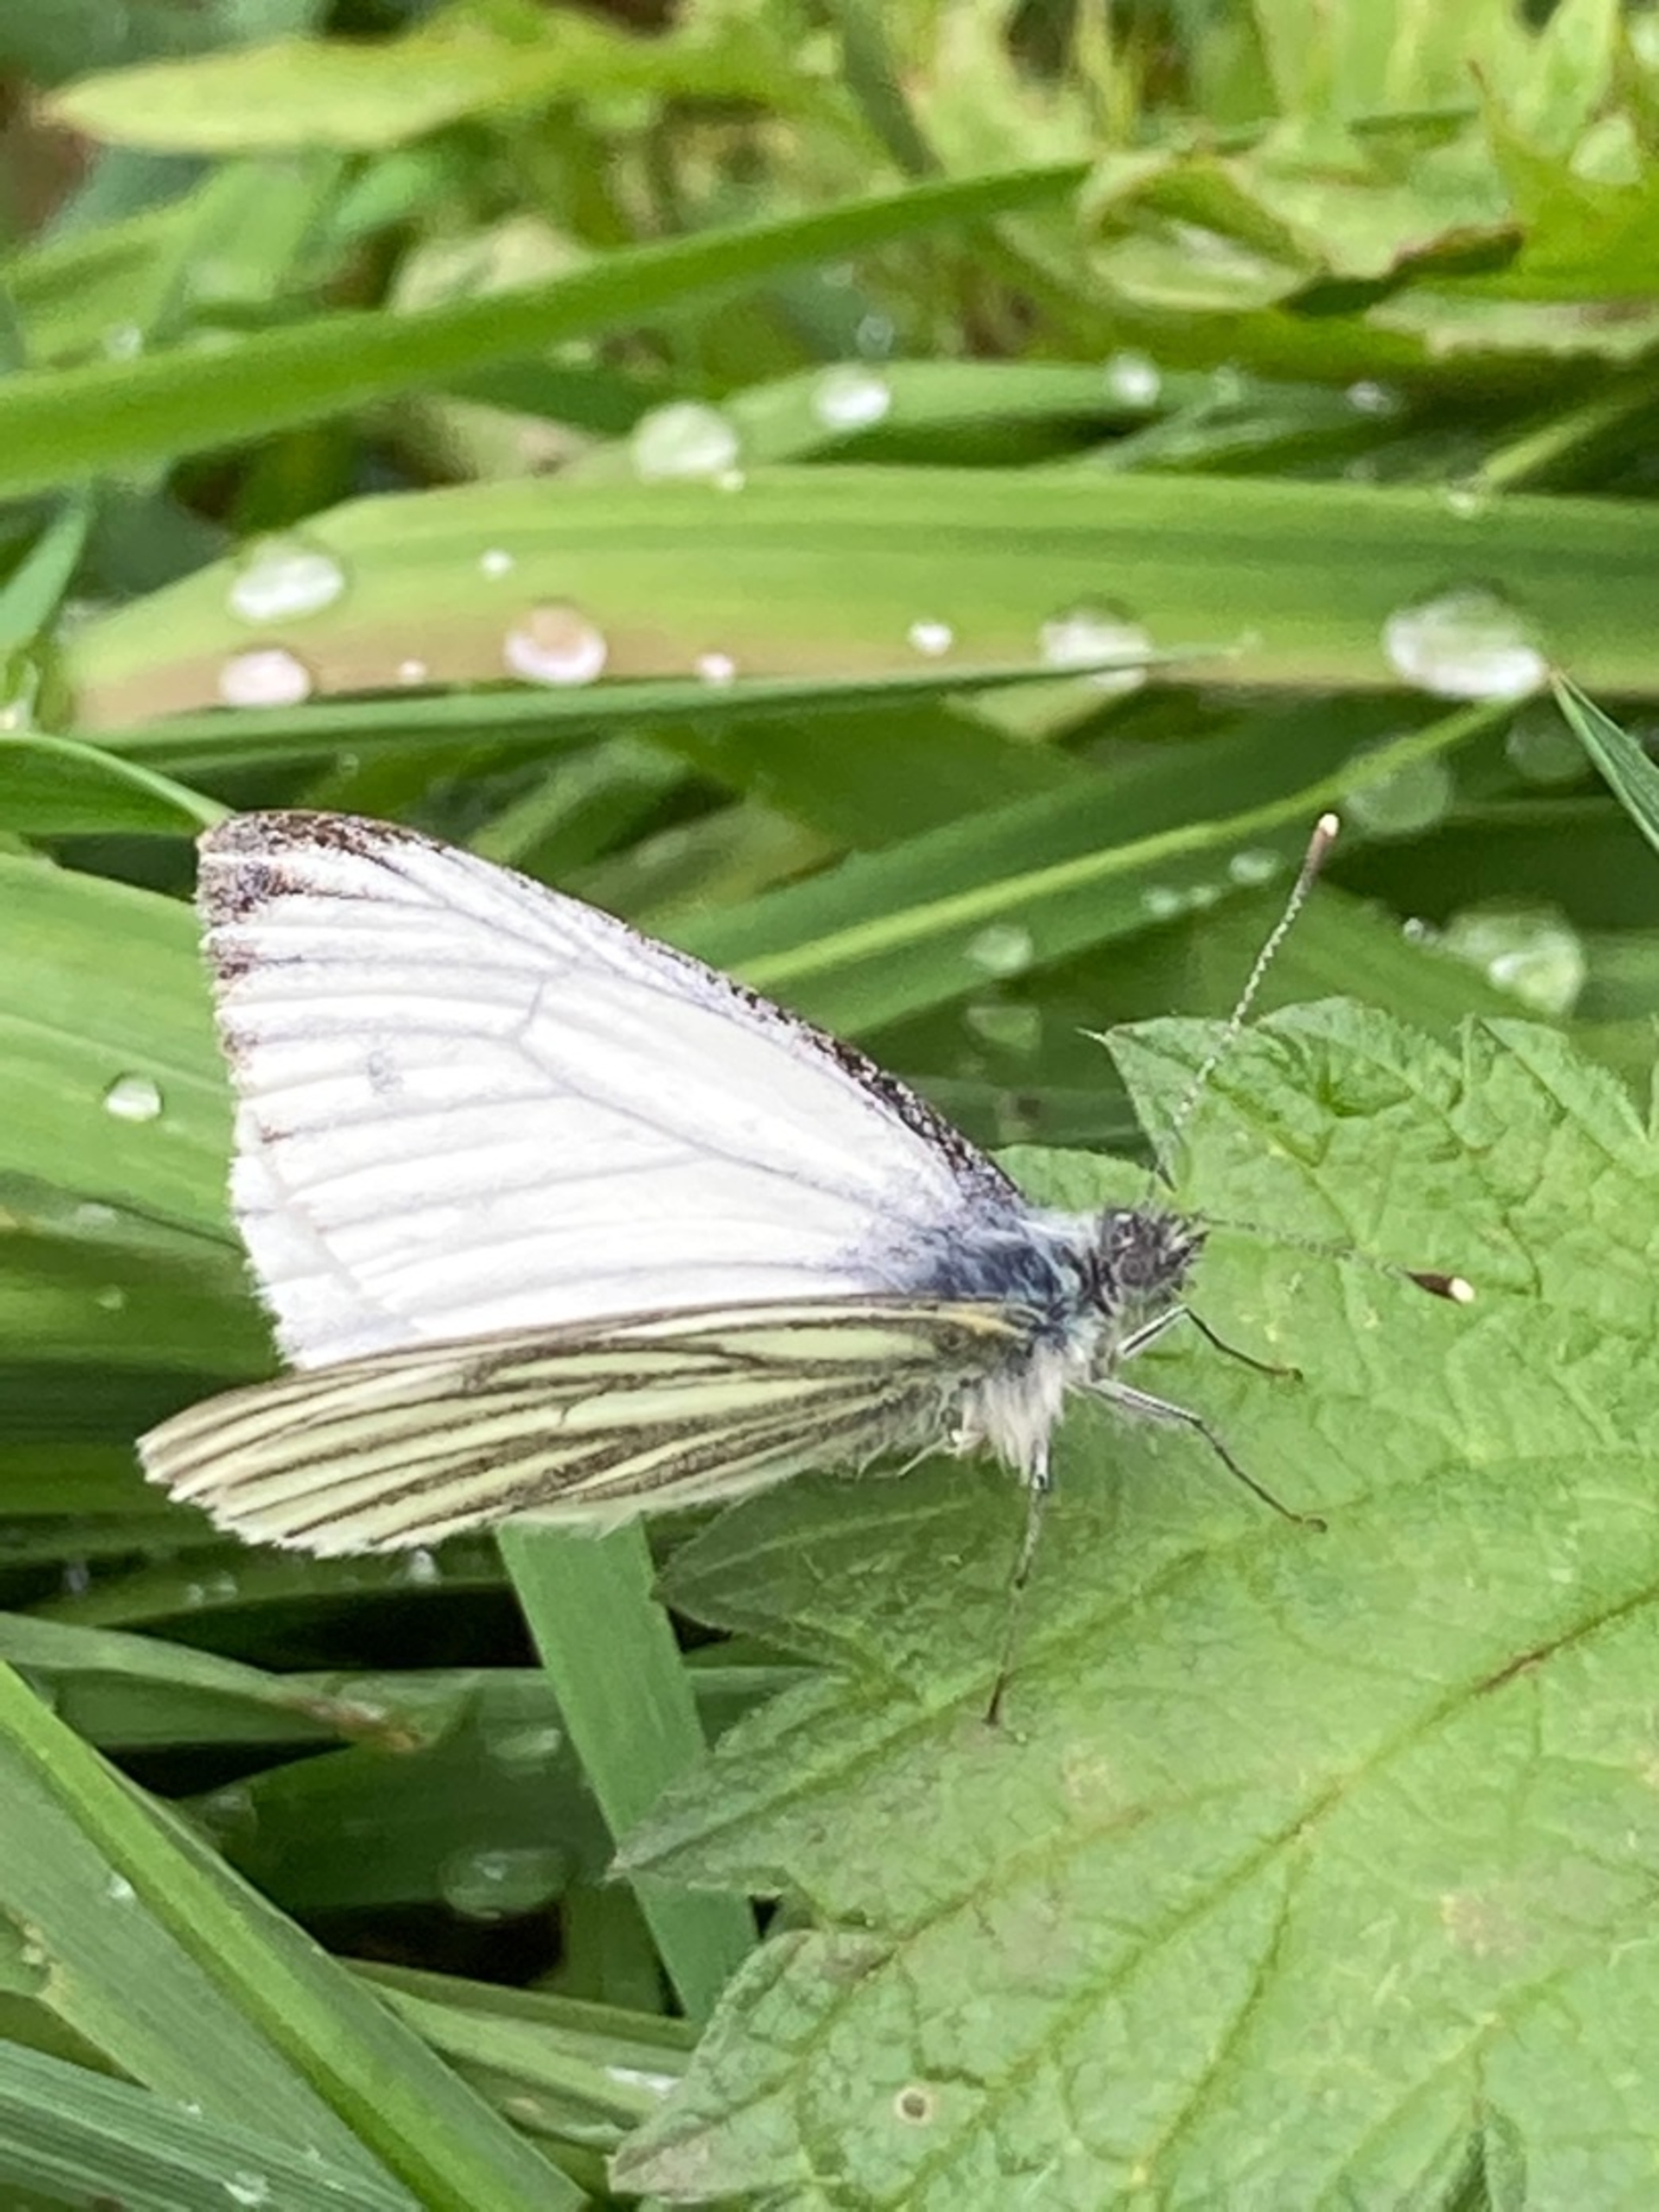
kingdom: Animalia
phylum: Arthropoda
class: Insecta
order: Lepidoptera
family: Pieridae
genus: Pieris
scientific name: Pieris napi
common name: Grønåret kålsommerfugl
